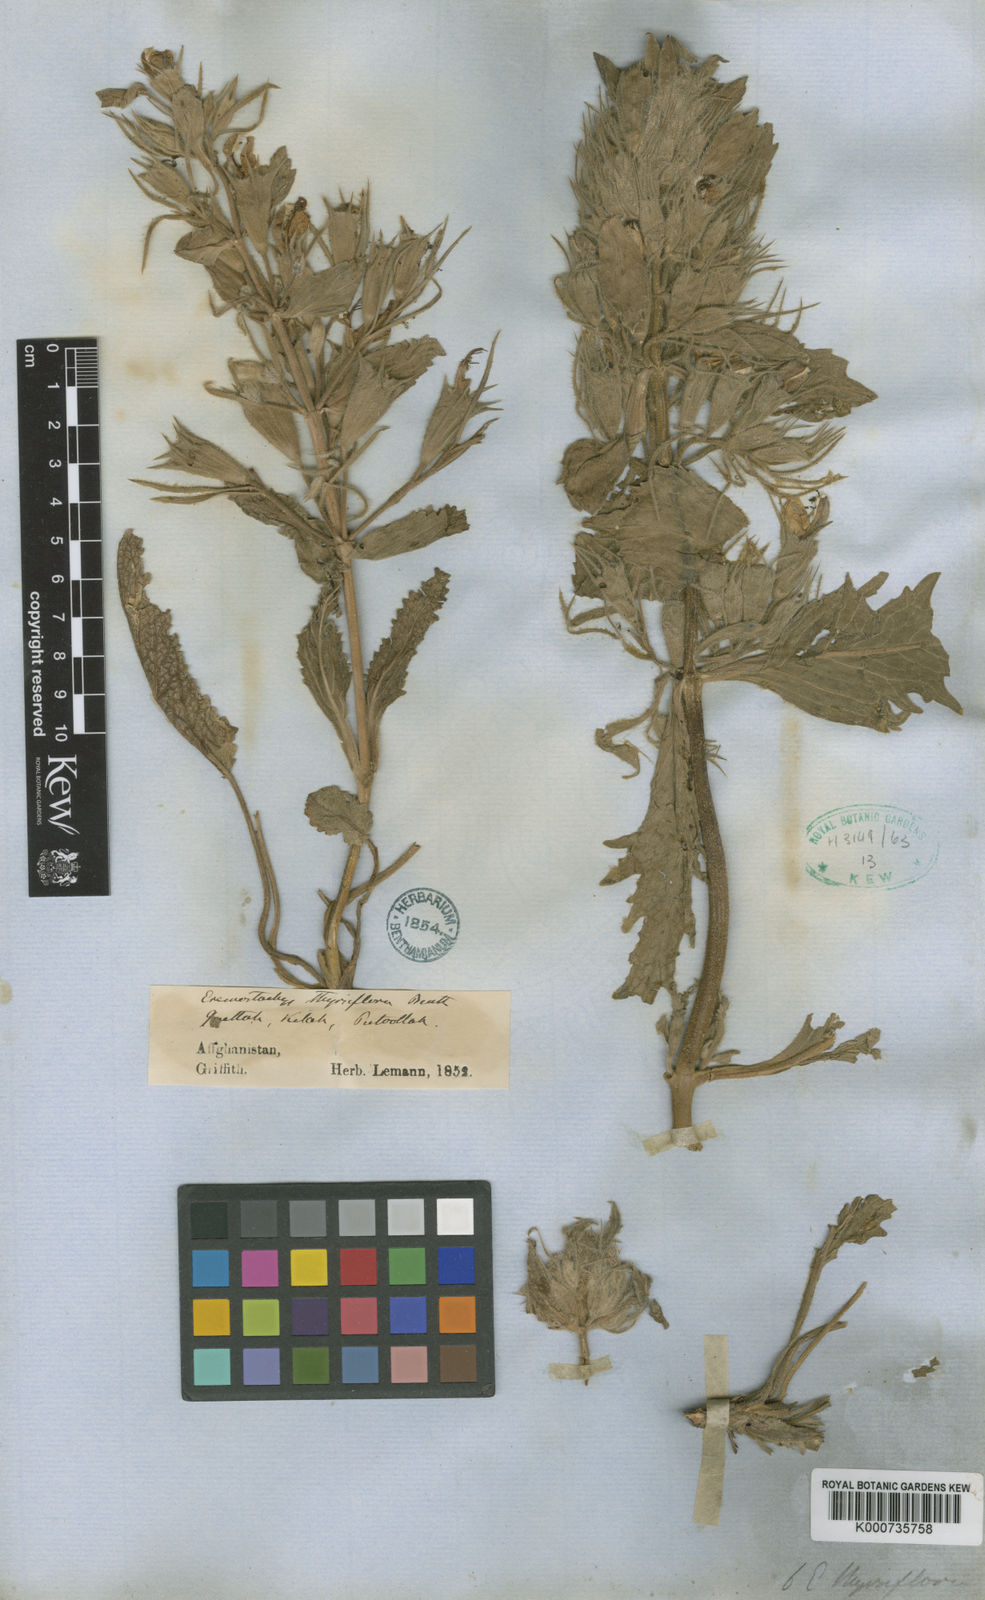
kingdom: Plantae
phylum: Tracheophyta
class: Magnoliopsida
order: Lamiales
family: Lamiaceae
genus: Phlomoides
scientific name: Phlomoides thyrsiflora
